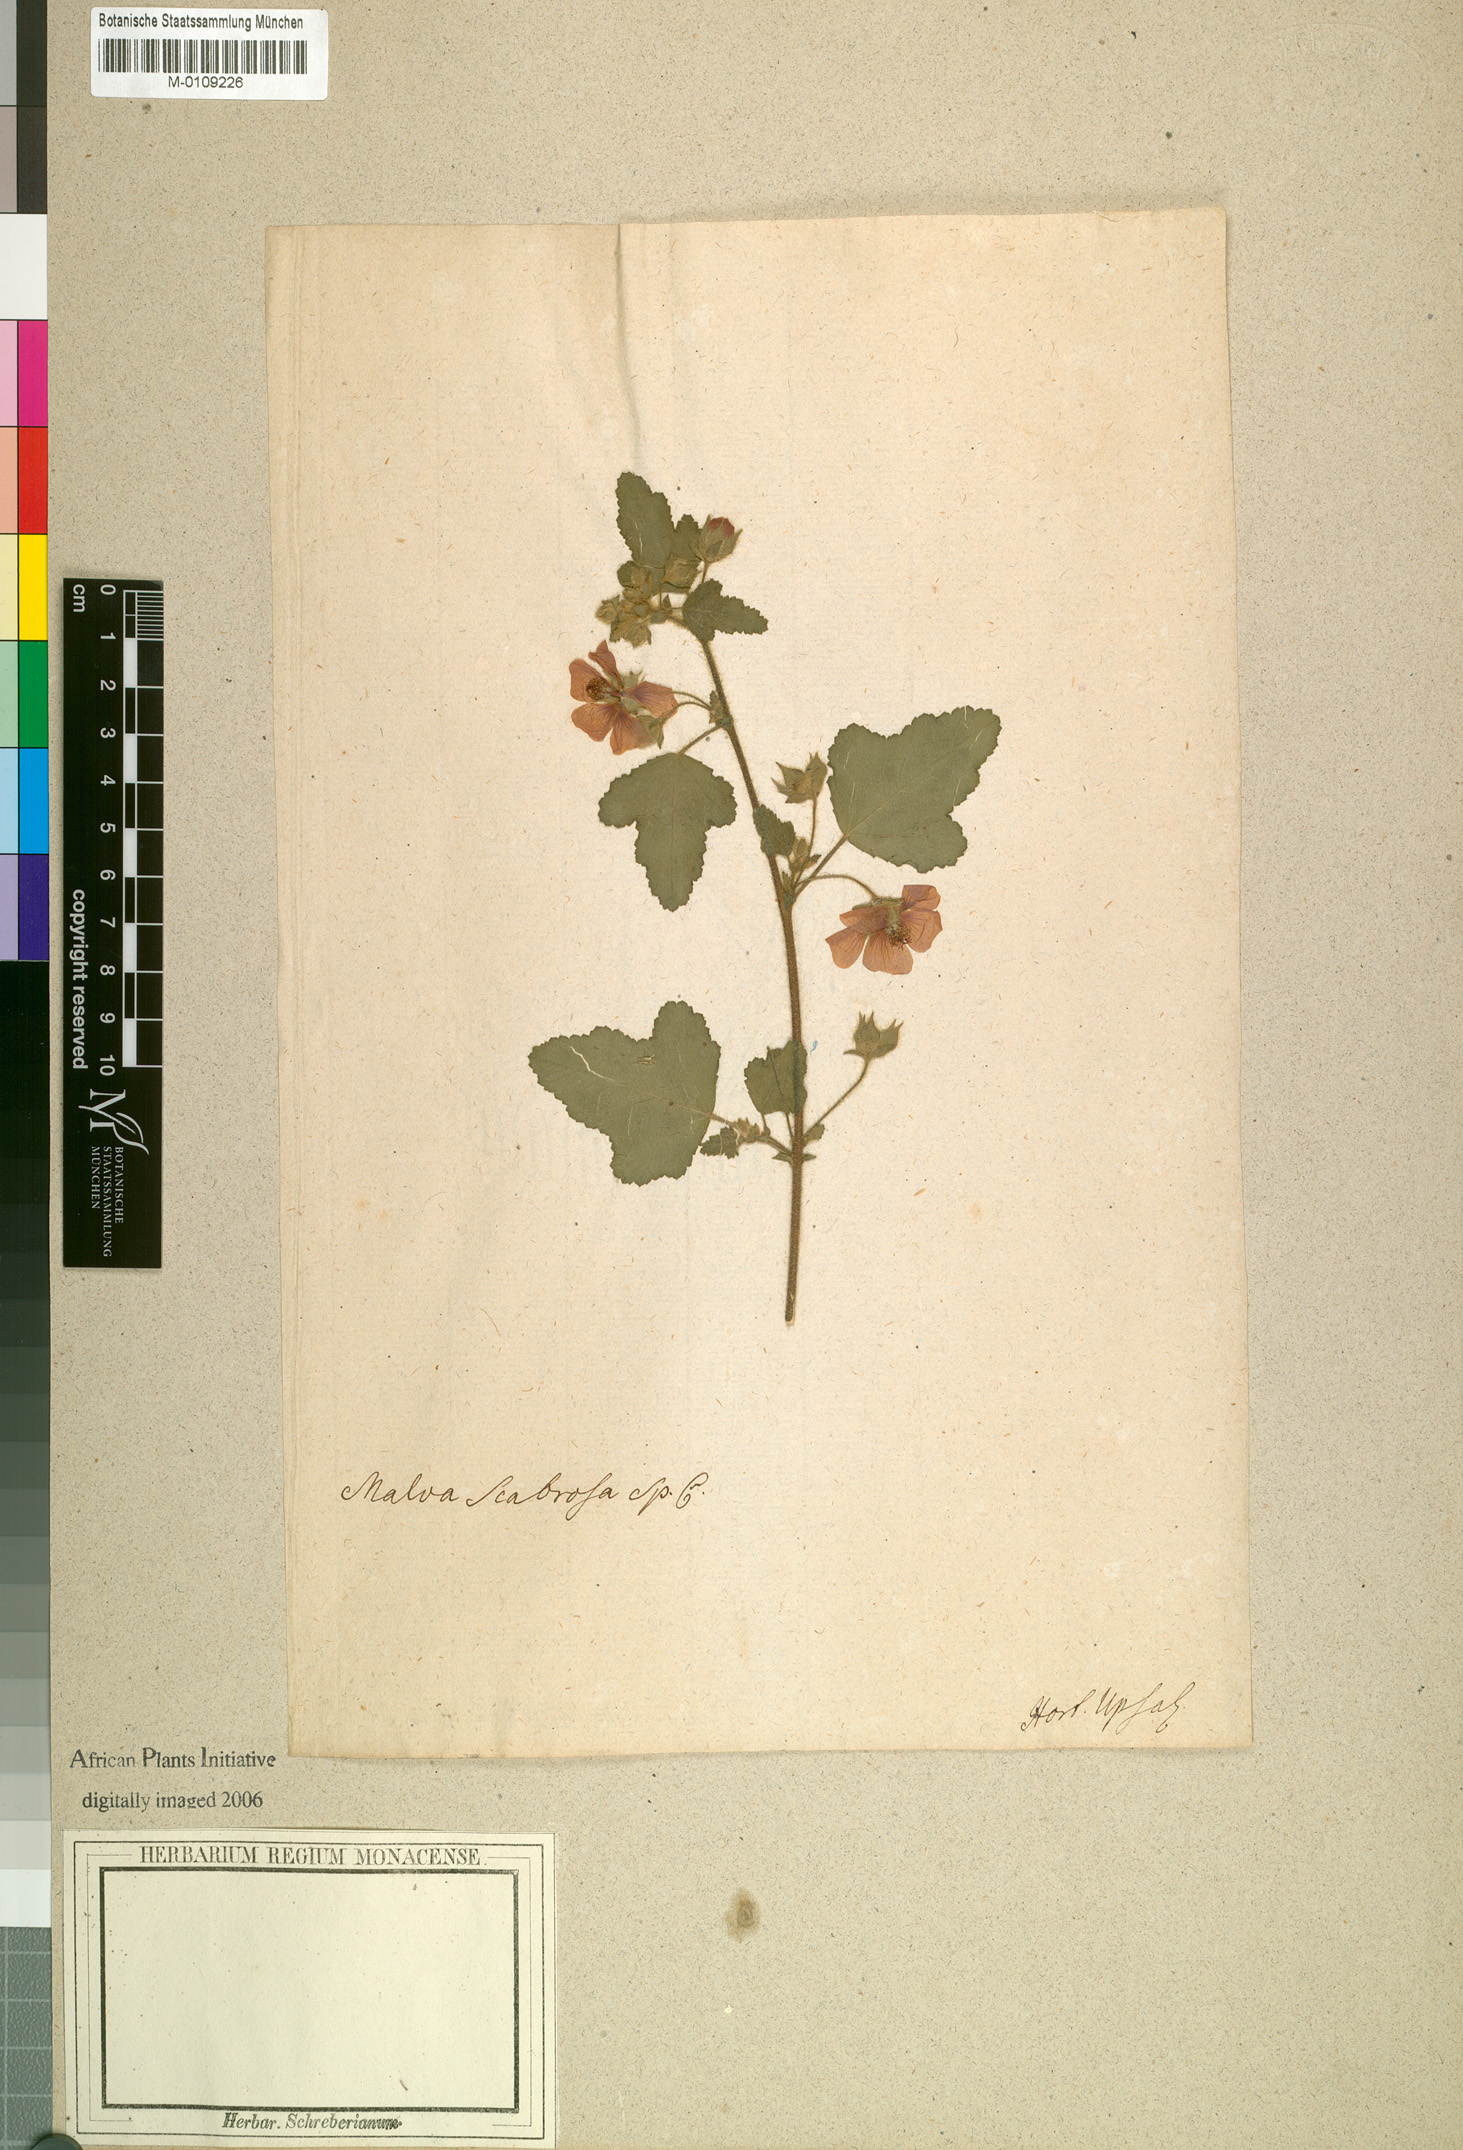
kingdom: Plantae
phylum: Tracheophyta
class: Magnoliopsida
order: Malvales
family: Malvaceae
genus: Anisodontea
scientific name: Anisodontea scabrosa
